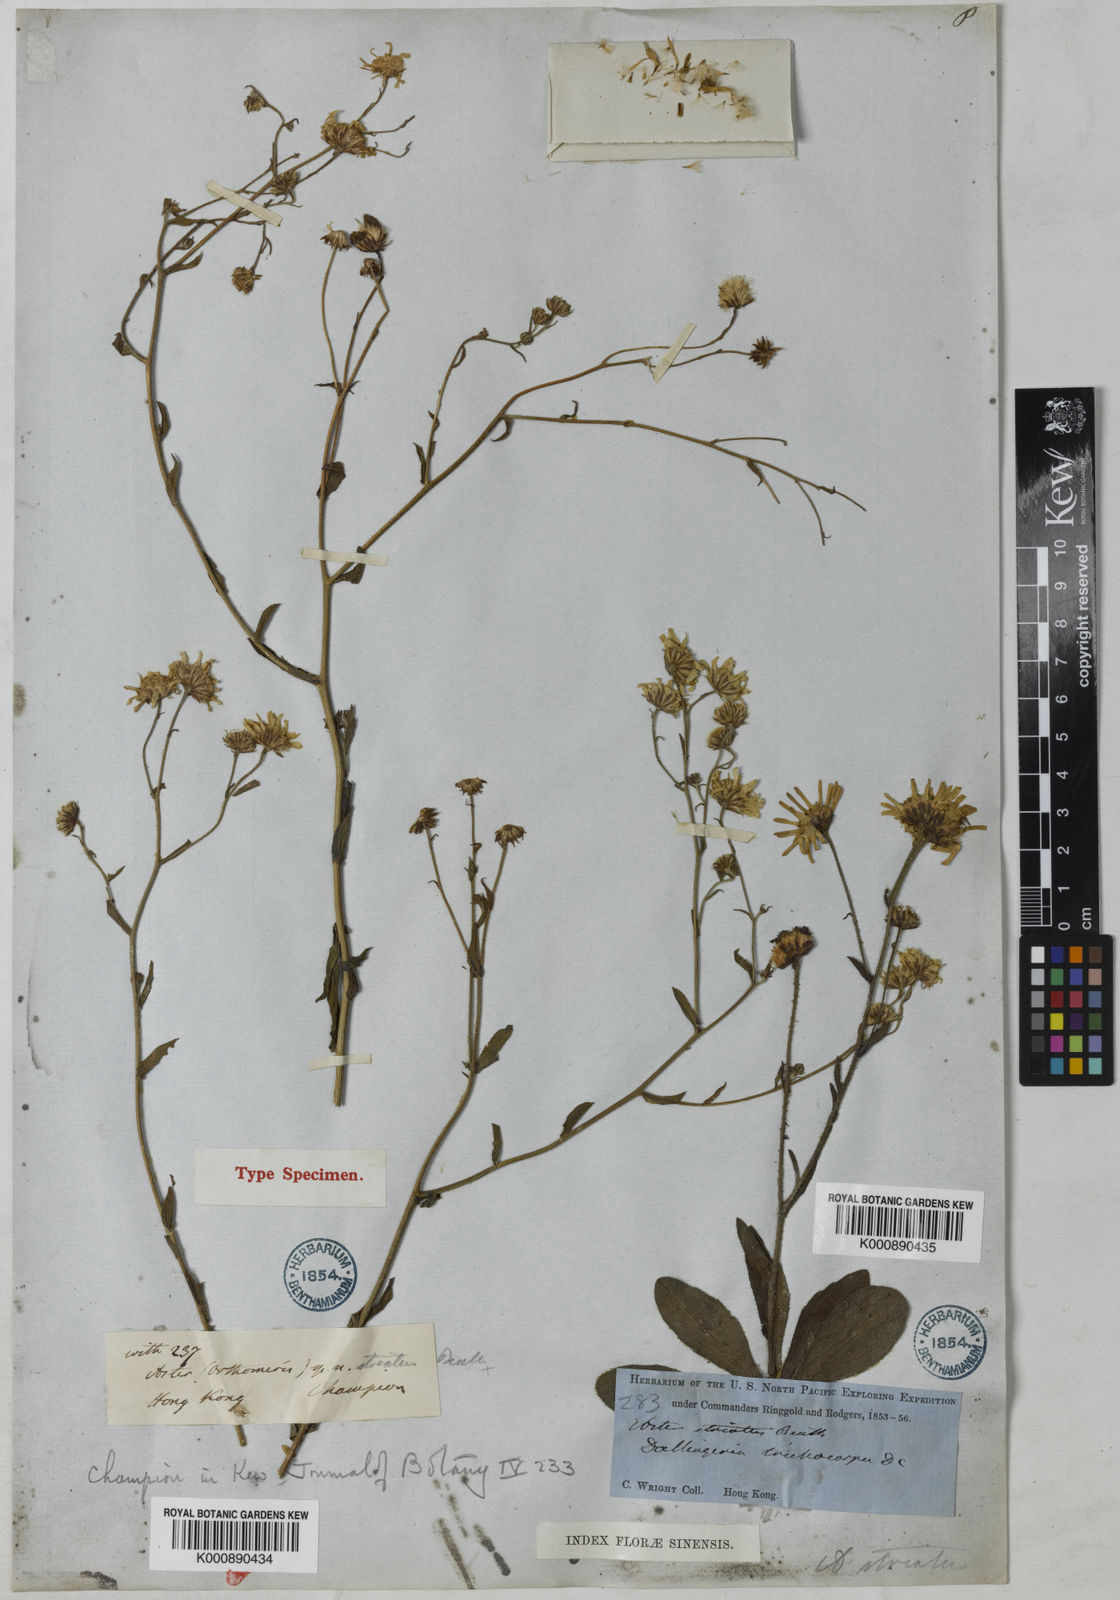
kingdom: Plantae
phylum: Tracheophyta
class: Magnoliopsida
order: Asterales
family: Asteraceae
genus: Metamyriactis
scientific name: Metamyriactis panduratus
